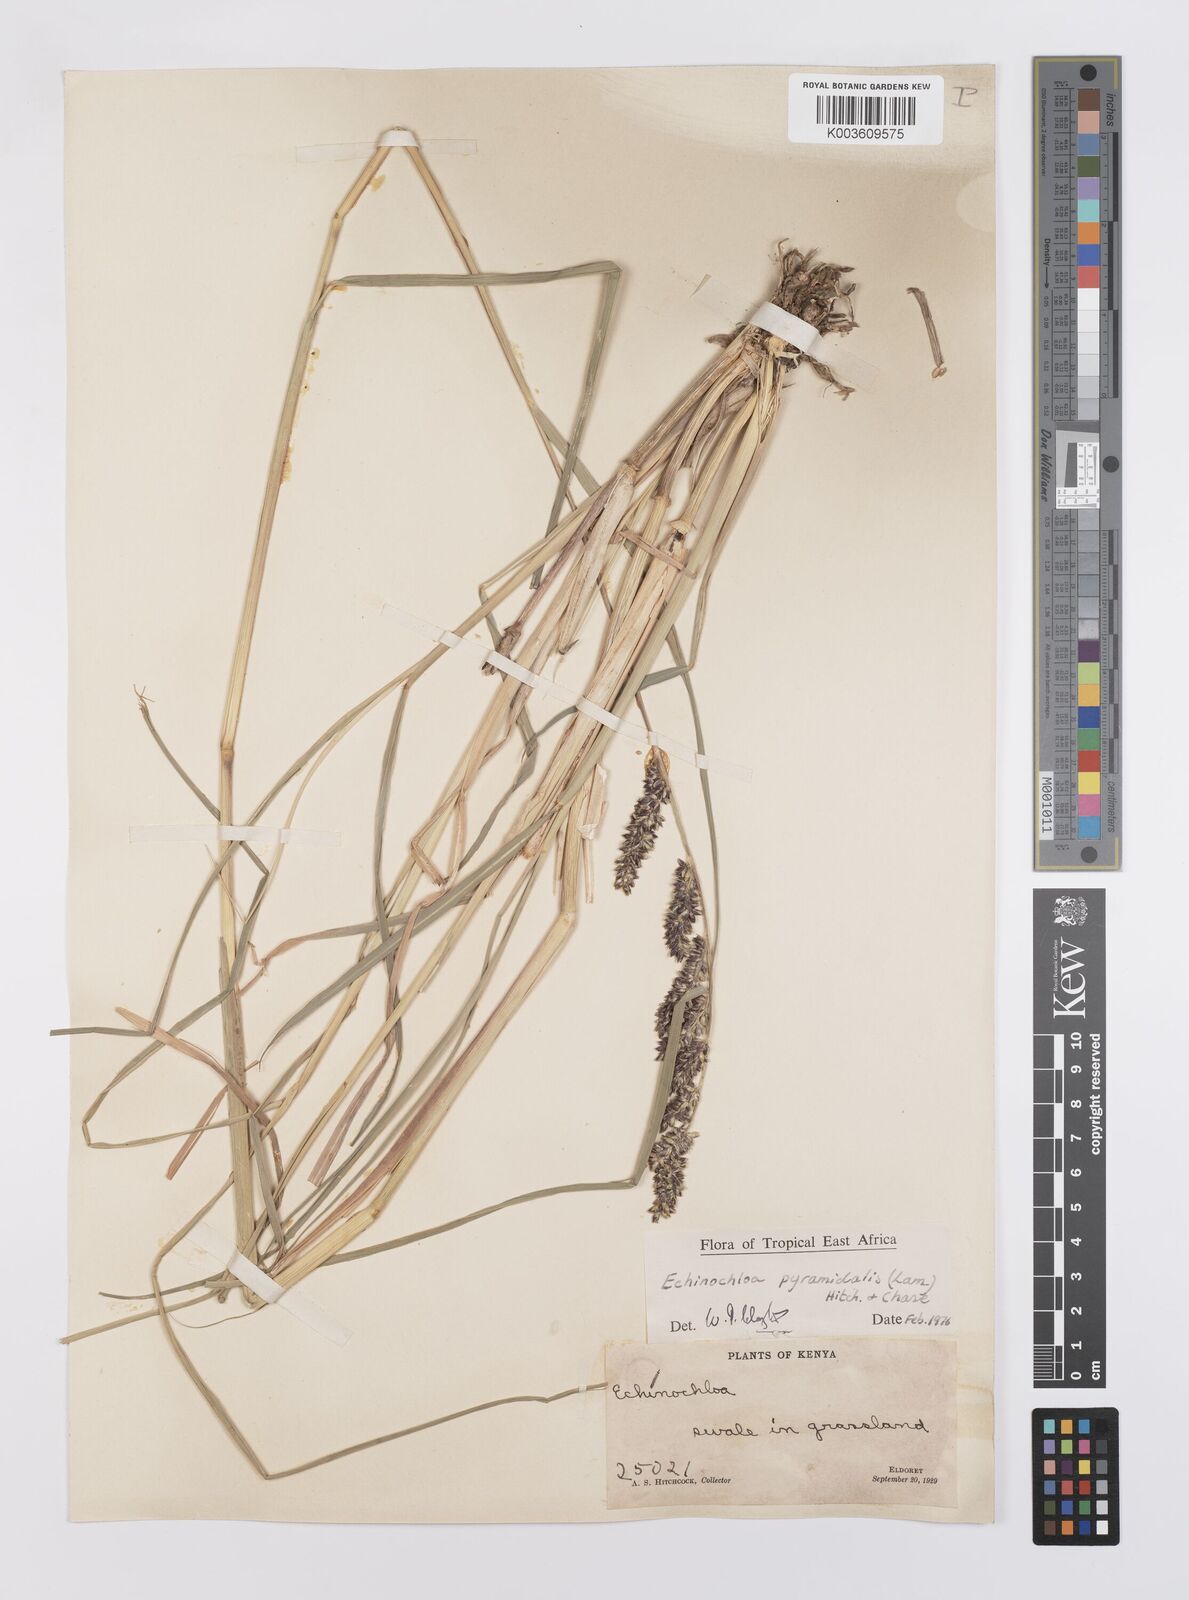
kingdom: Plantae
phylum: Tracheophyta
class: Liliopsida
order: Poales
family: Poaceae
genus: Echinochloa
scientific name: Echinochloa pyramidalis
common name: Antelope grass
